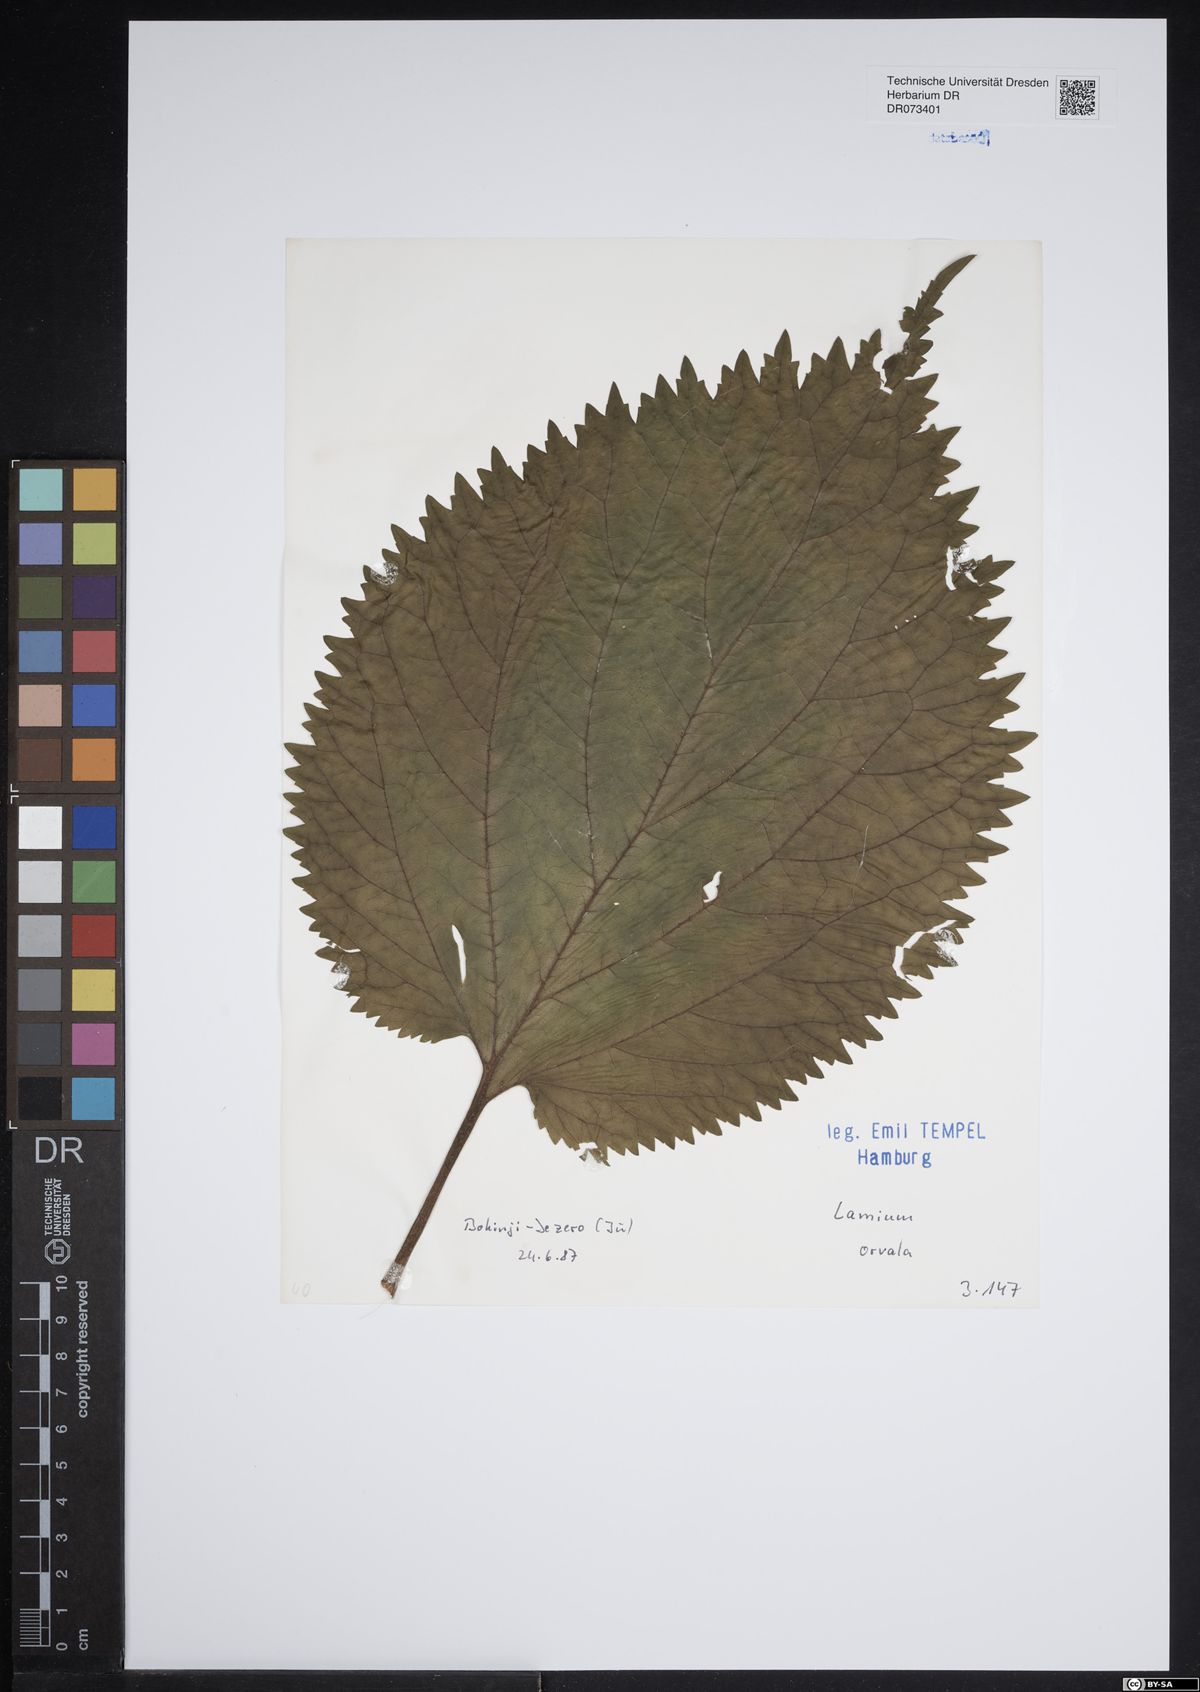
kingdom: Plantae
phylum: Tracheophyta
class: Magnoliopsida
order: Lamiales
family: Lamiaceae
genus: Lamium
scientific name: Lamium orvala
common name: Balm-leaved archangel
